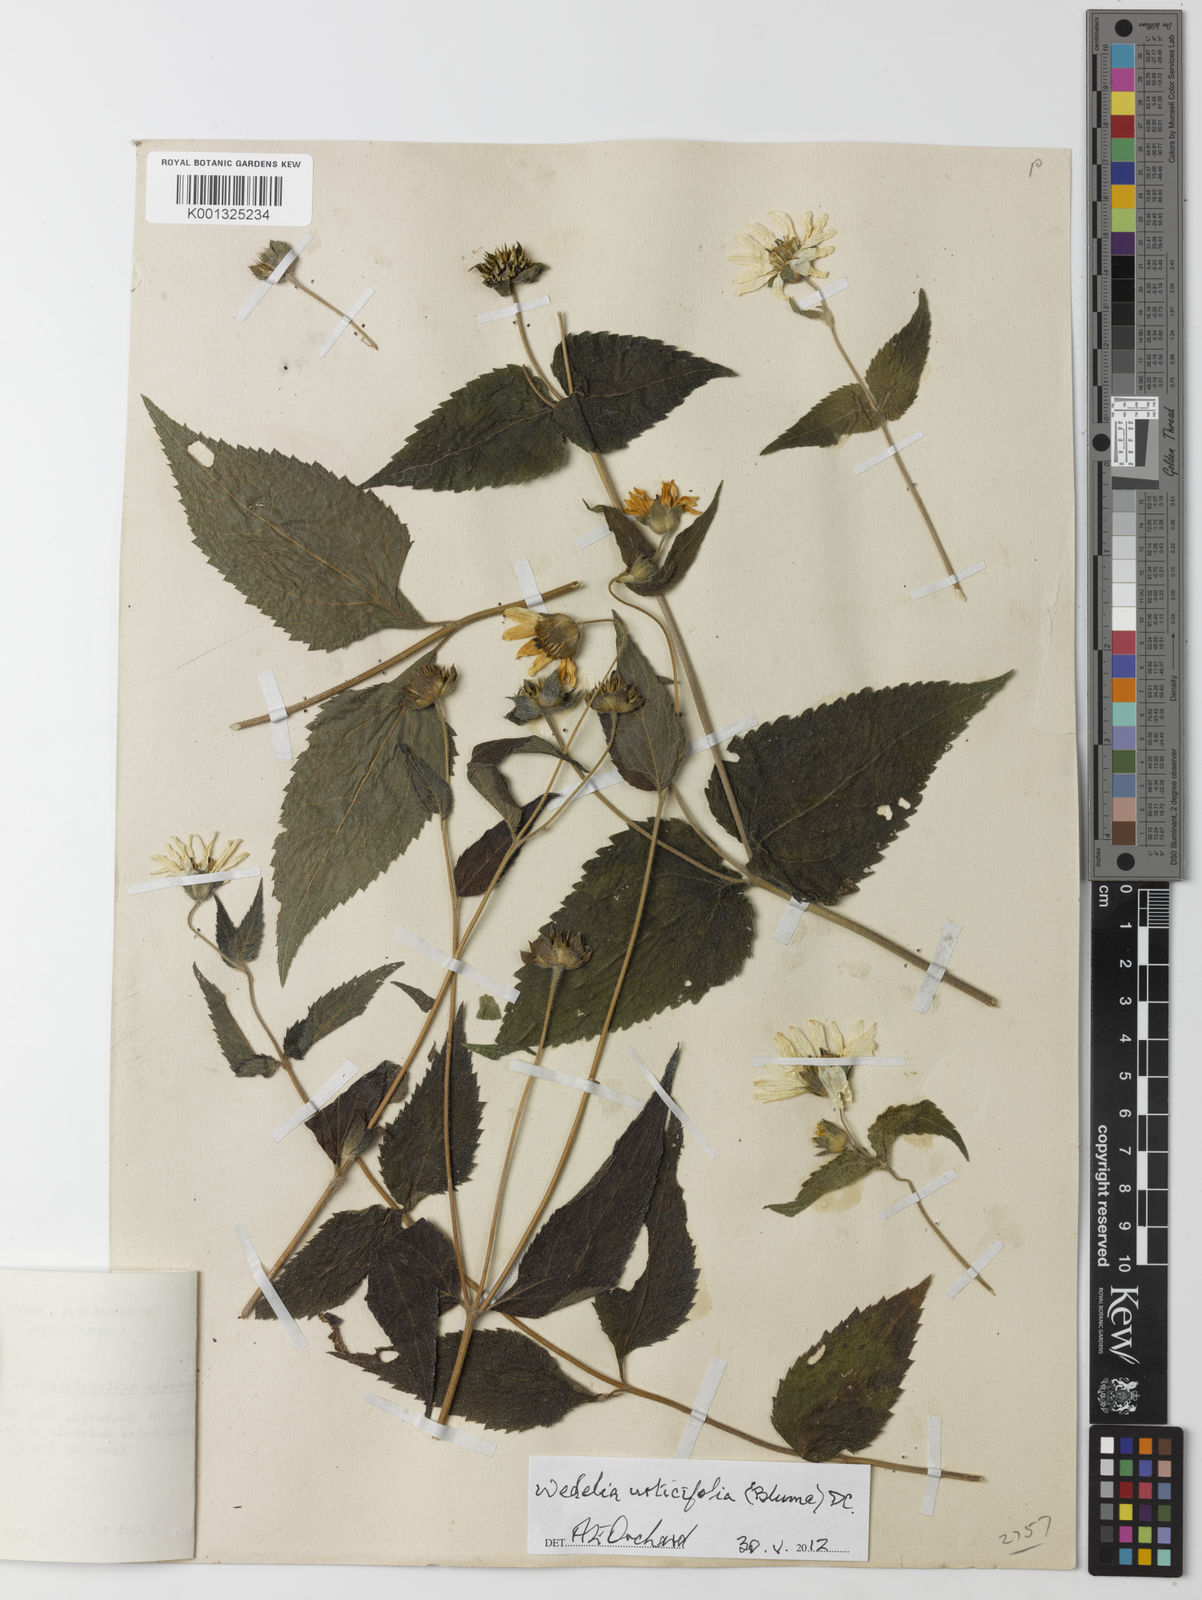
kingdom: Plantae
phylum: Tracheophyta
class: Magnoliopsida
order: Asterales
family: Asteraceae
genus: Lipoblepharis
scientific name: Lipoblepharis urticifolia
